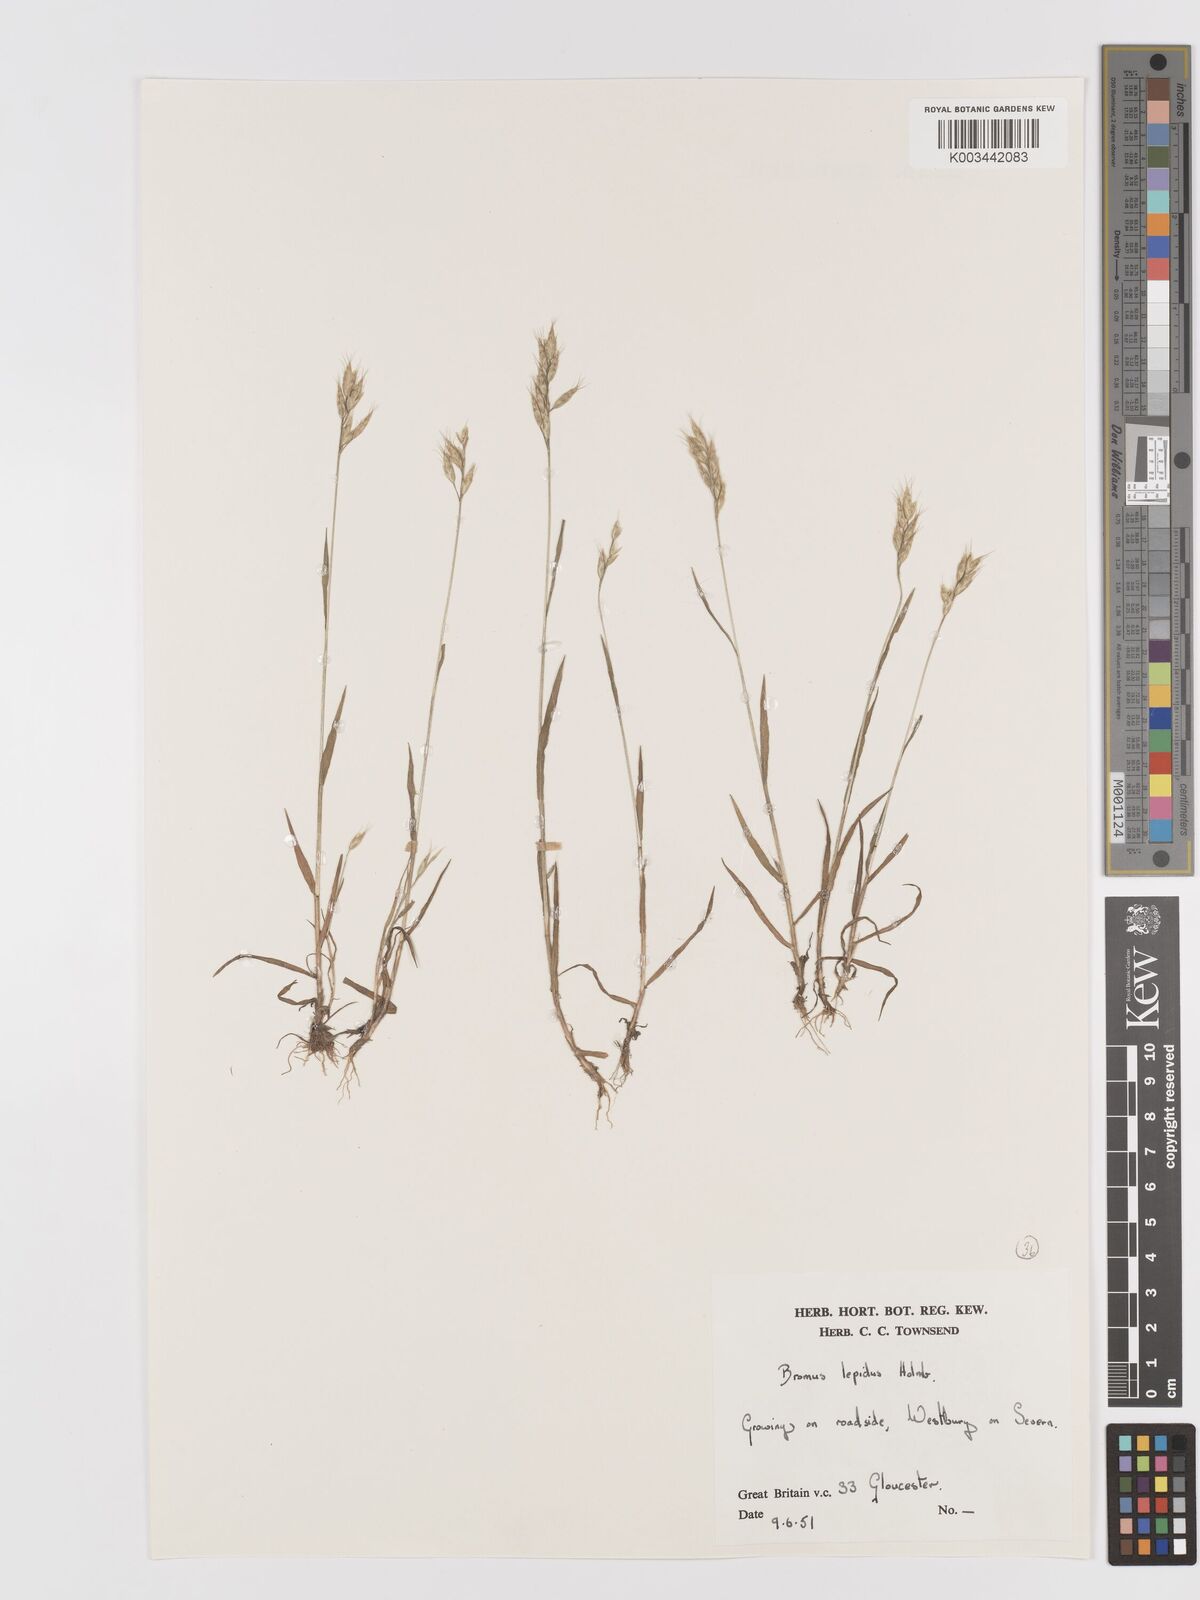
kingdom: Plantae
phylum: Tracheophyta
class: Liliopsida
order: Poales
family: Poaceae
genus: Bromus
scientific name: Bromus lepidus
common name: Slender soft-brome
